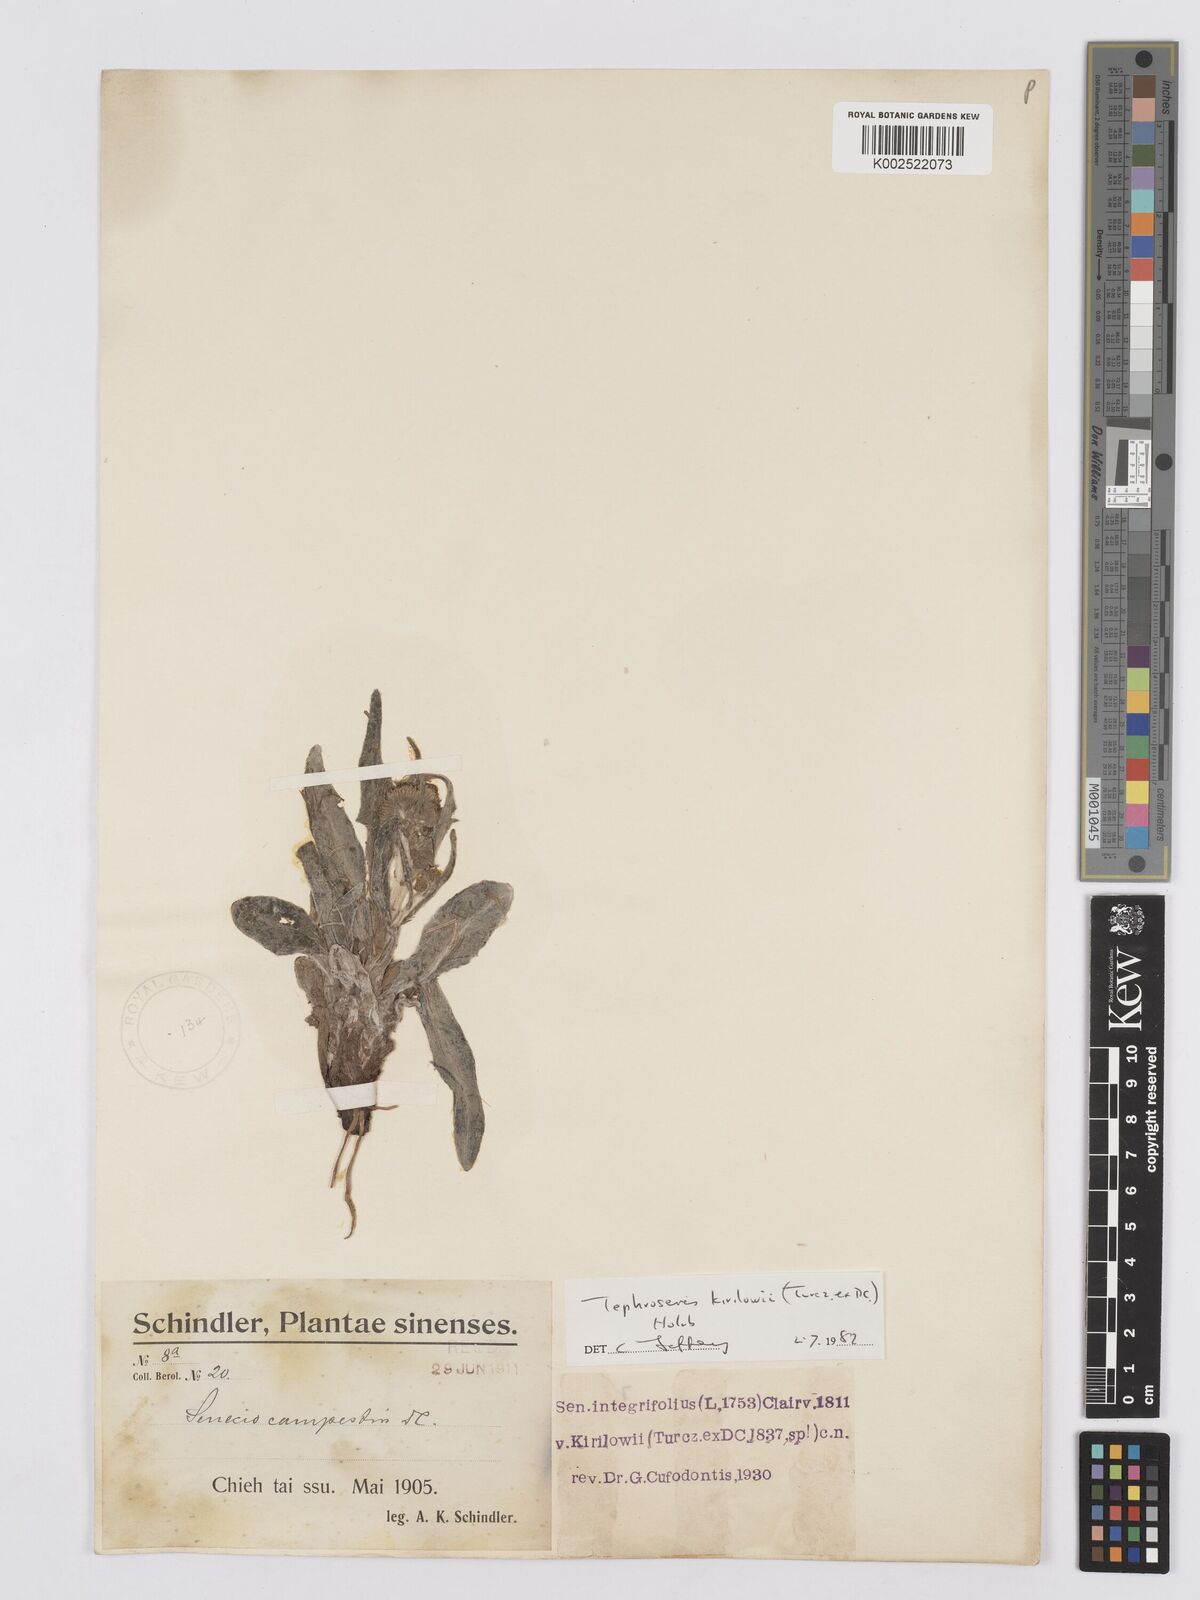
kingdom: Plantae
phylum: Tracheophyta
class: Magnoliopsida
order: Asterales
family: Asteraceae
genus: Tephroseris
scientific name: Tephroseris kirilowii
